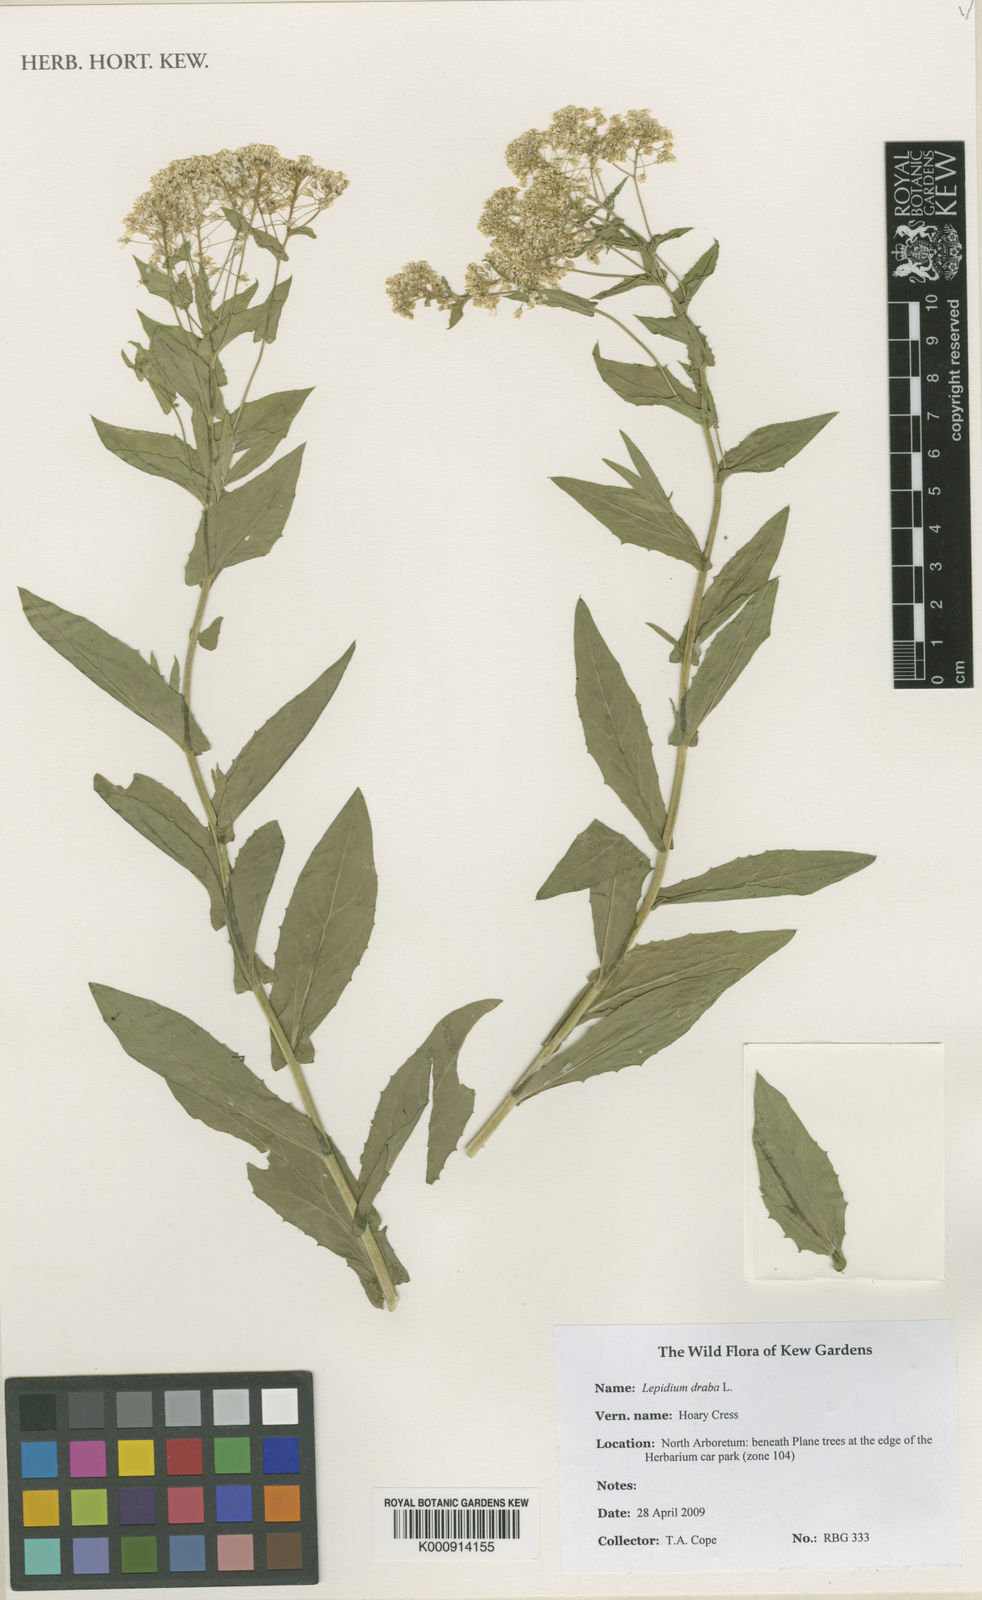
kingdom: Plantae
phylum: Tracheophyta
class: Magnoliopsida
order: Brassicales
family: Brassicaceae
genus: Lepidium
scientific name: Lepidium draba
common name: Hoary cress
